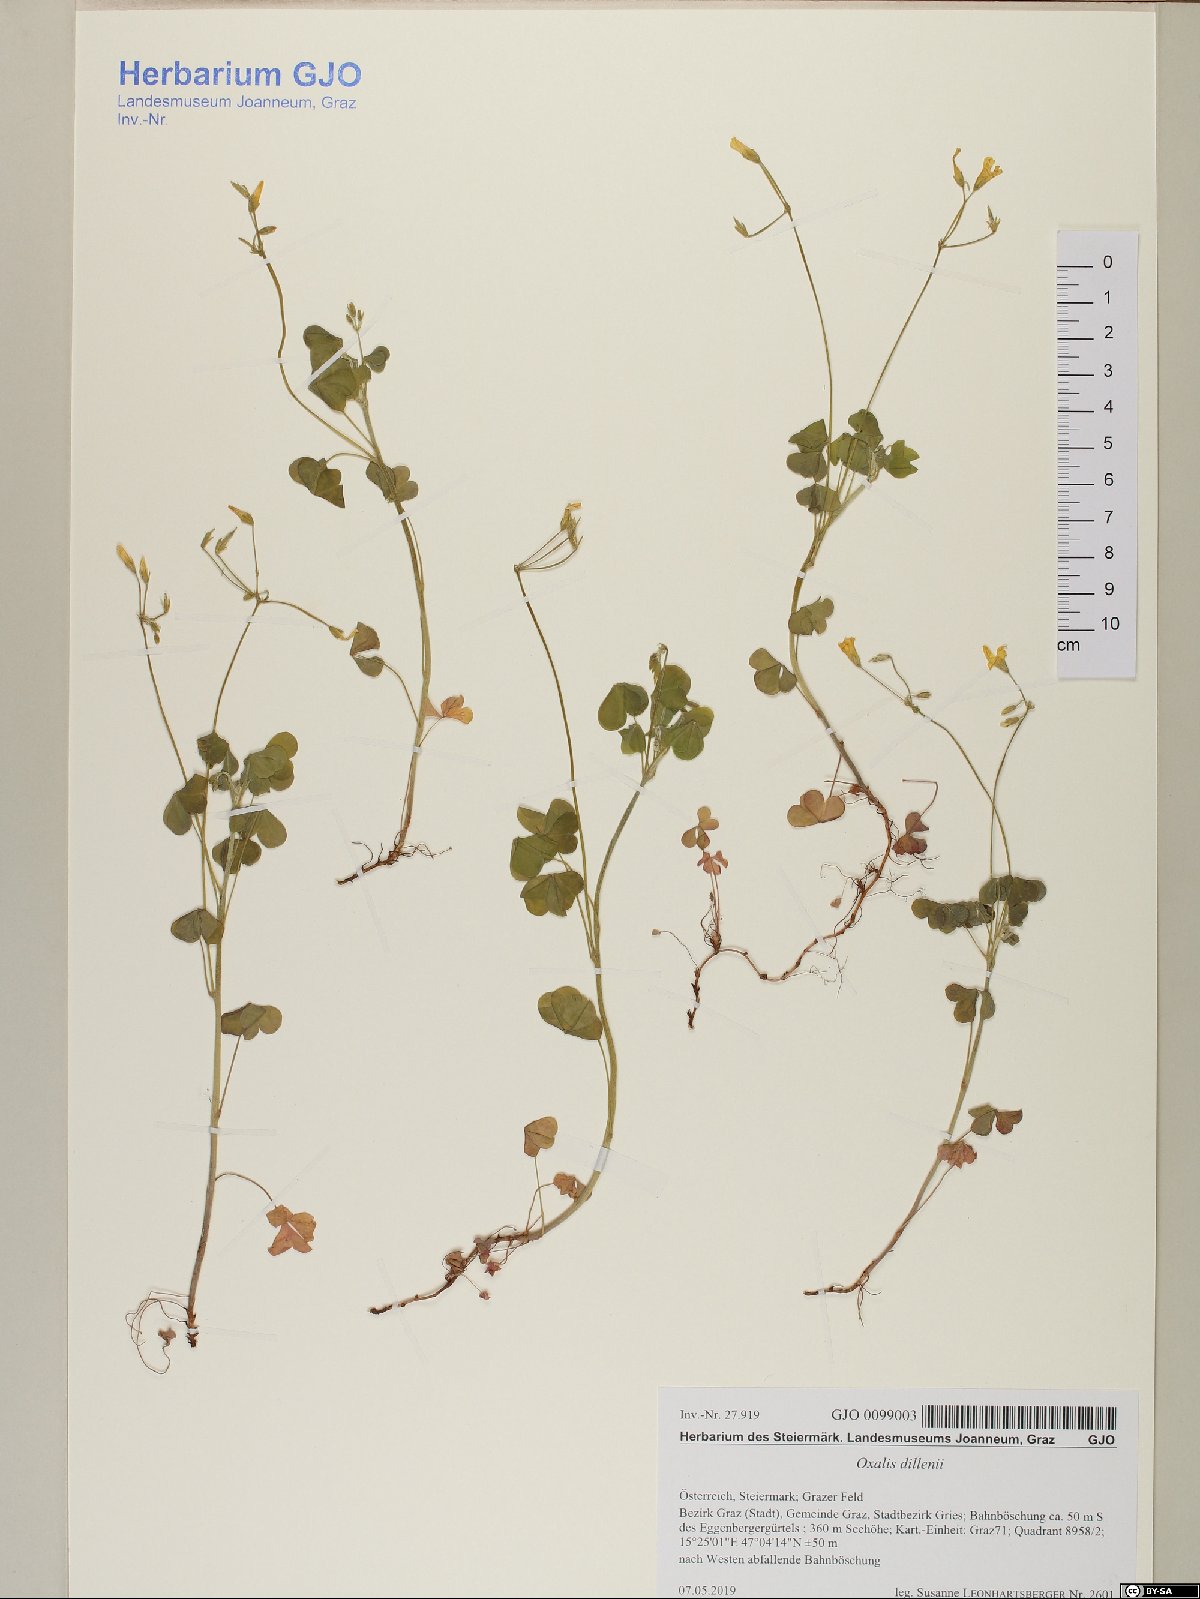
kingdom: Plantae
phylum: Tracheophyta
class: Magnoliopsida
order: Oxalidales
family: Oxalidaceae
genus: Oxalis
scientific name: Oxalis dillenii
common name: Sussex yellow-sorrel
